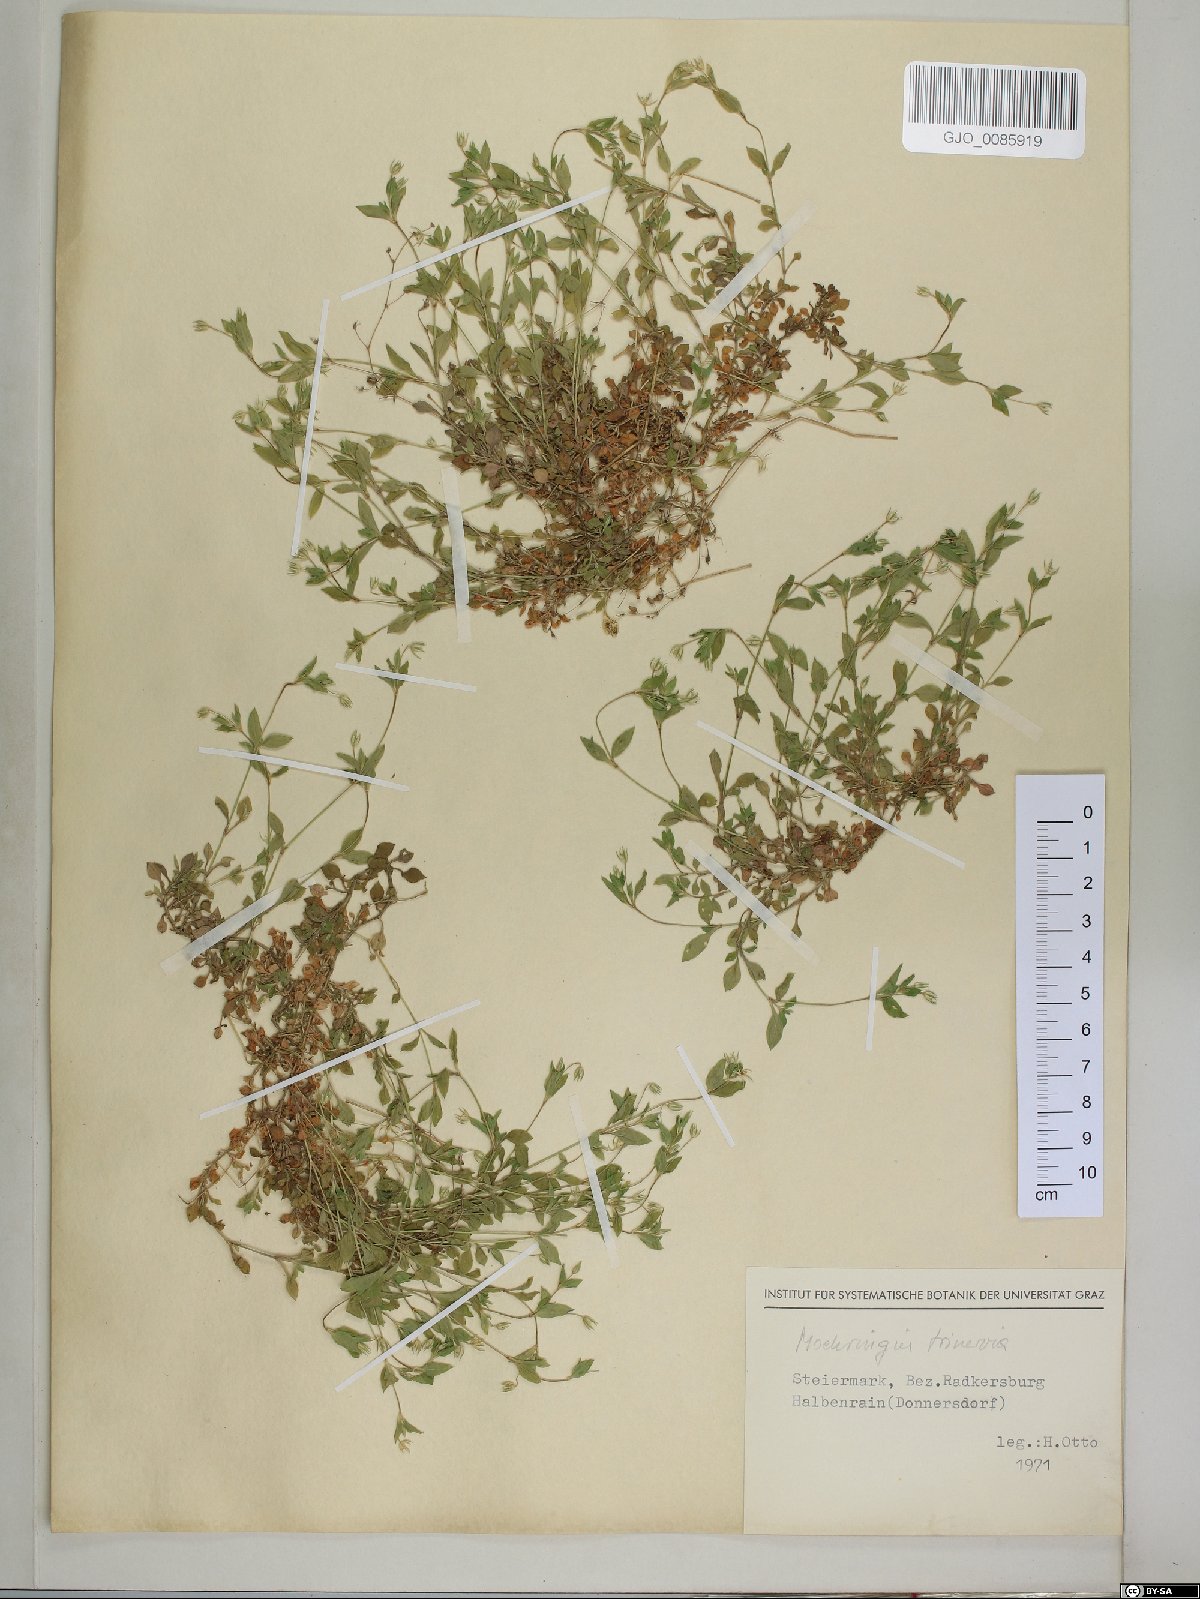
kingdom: Plantae
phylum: Tracheophyta
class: Magnoliopsida
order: Caryophyllales
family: Caryophyllaceae
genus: Moehringia
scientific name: Moehringia trinervia
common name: Three-nerved sandwort
